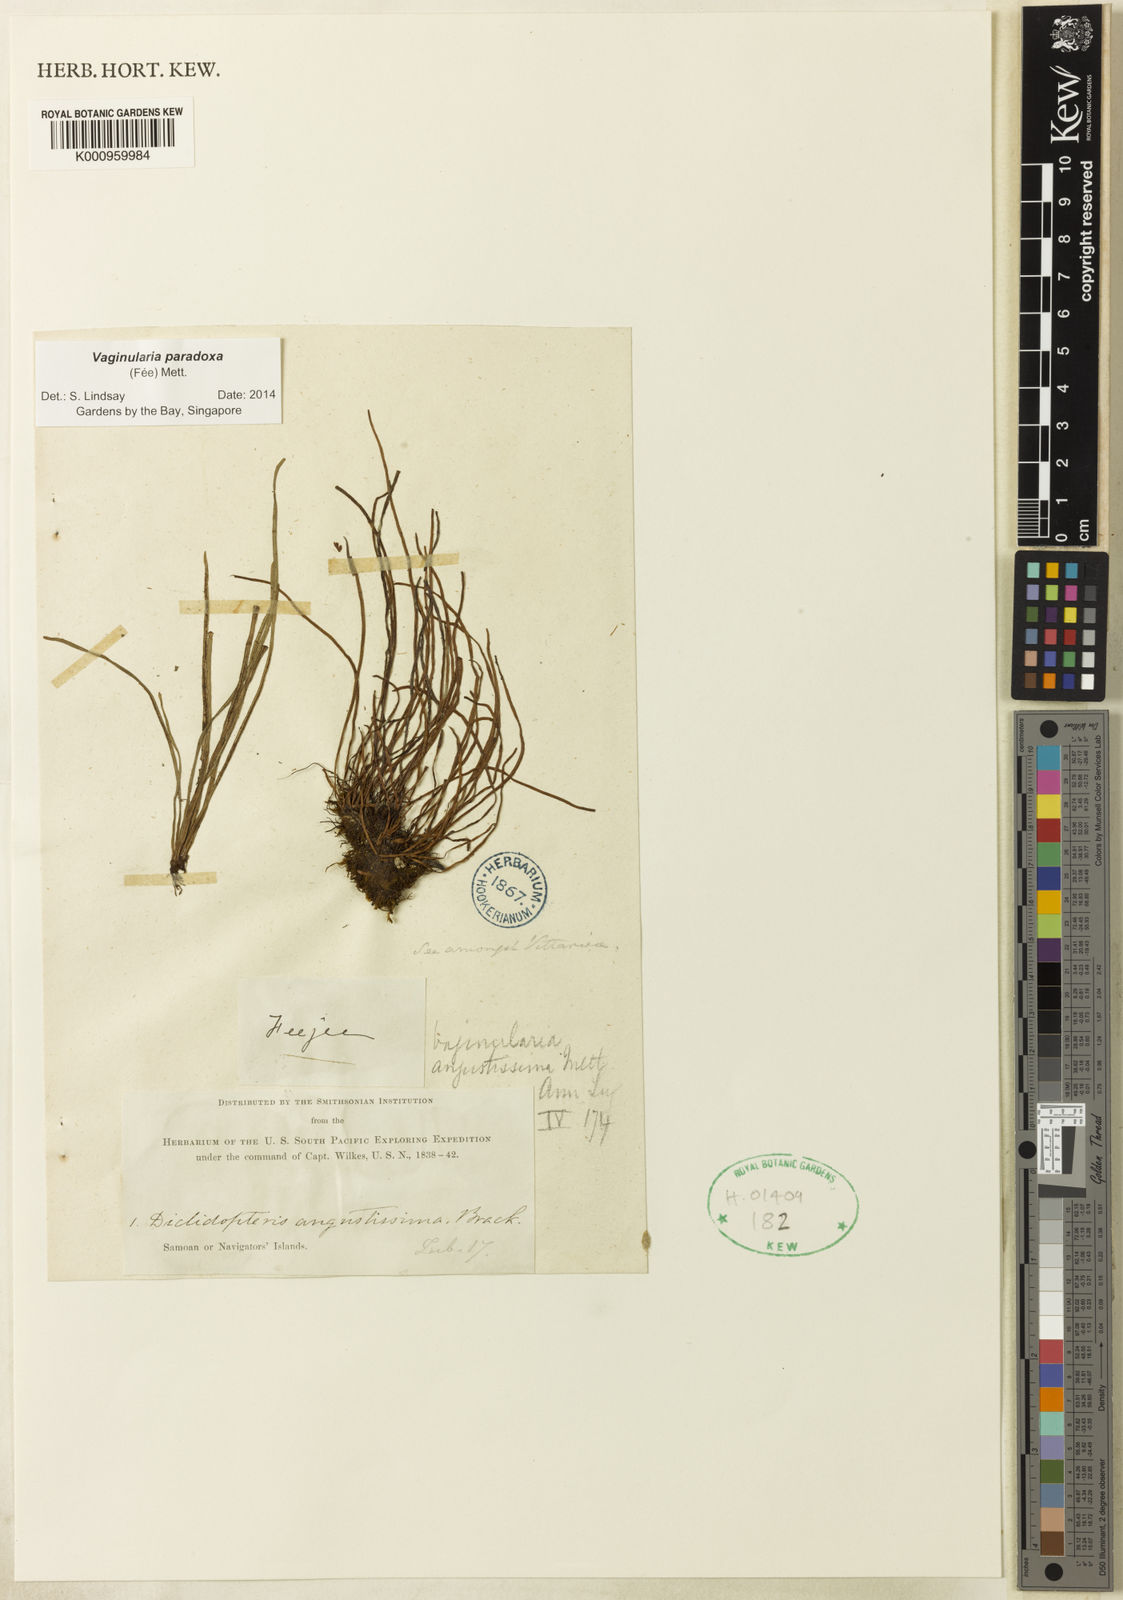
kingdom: Plantae
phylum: Tracheophyta
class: Polypodiopsida
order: Polypodiales
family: Pteridaceae
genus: Vaginularia
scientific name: Vaginularia
